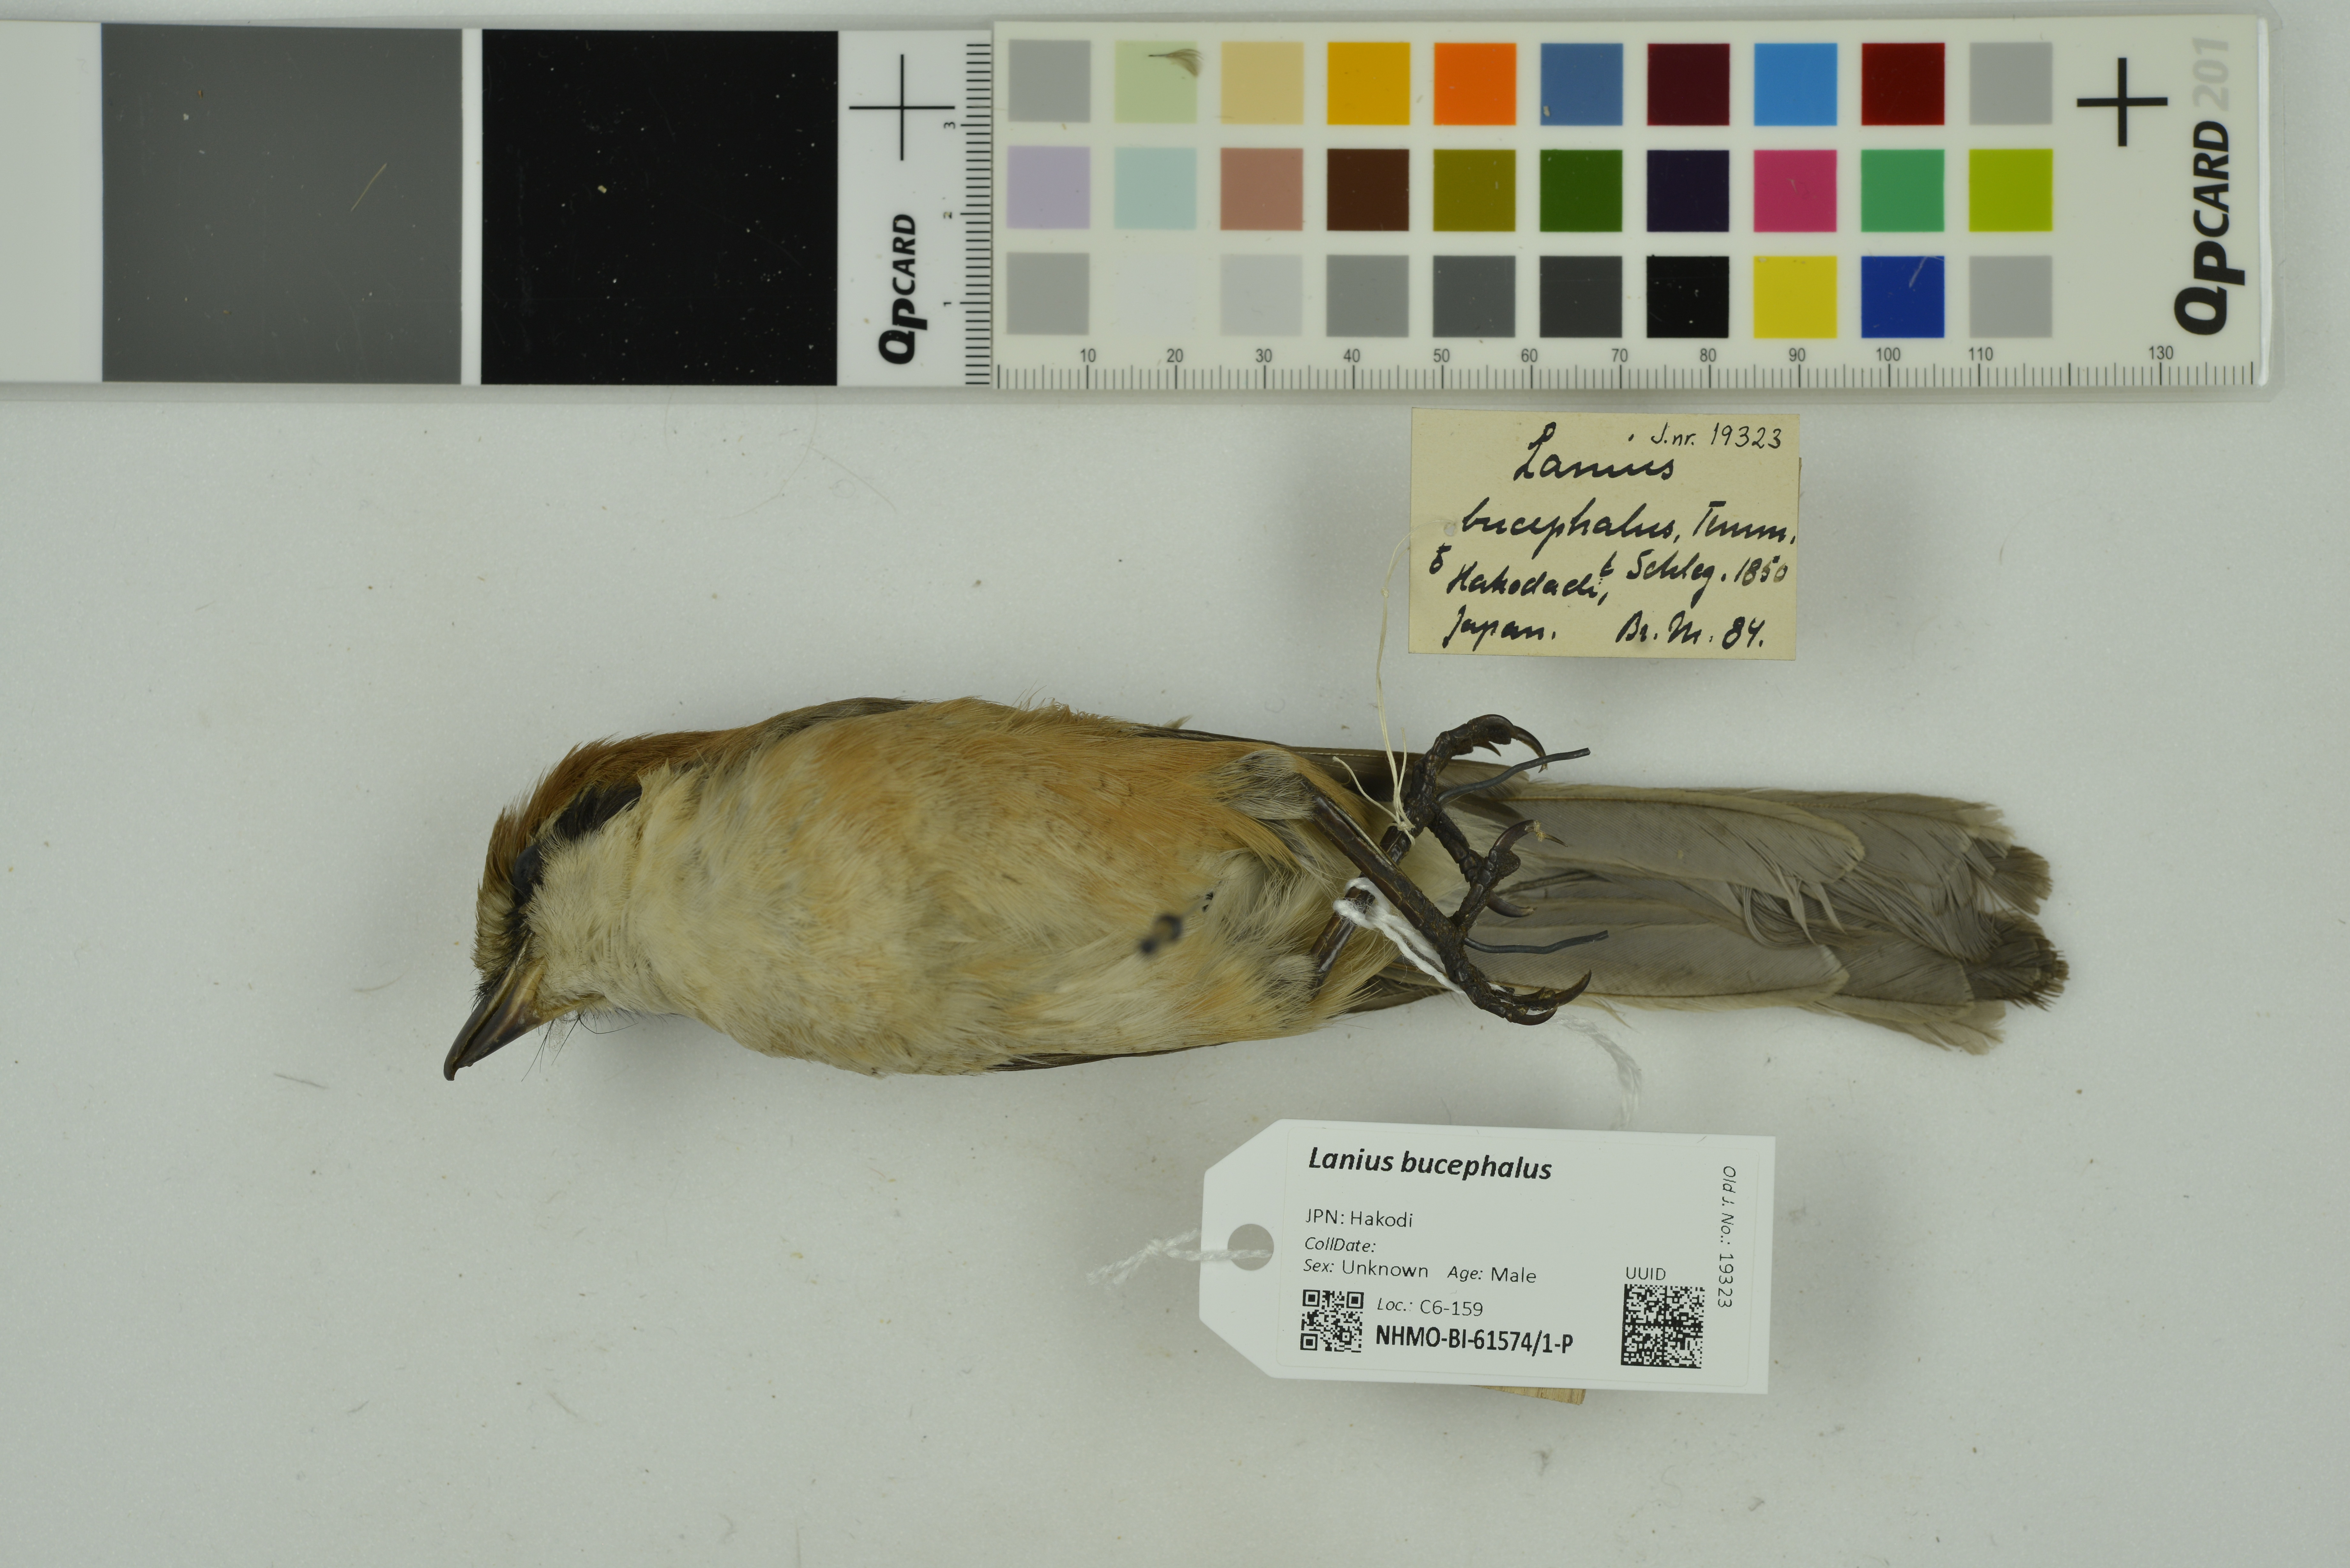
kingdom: Animalia
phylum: Chordata
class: Aves
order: Passeriformes
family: Laniidae
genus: Lanius
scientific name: Lanius bucephalus
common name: Bull-headed shrike
